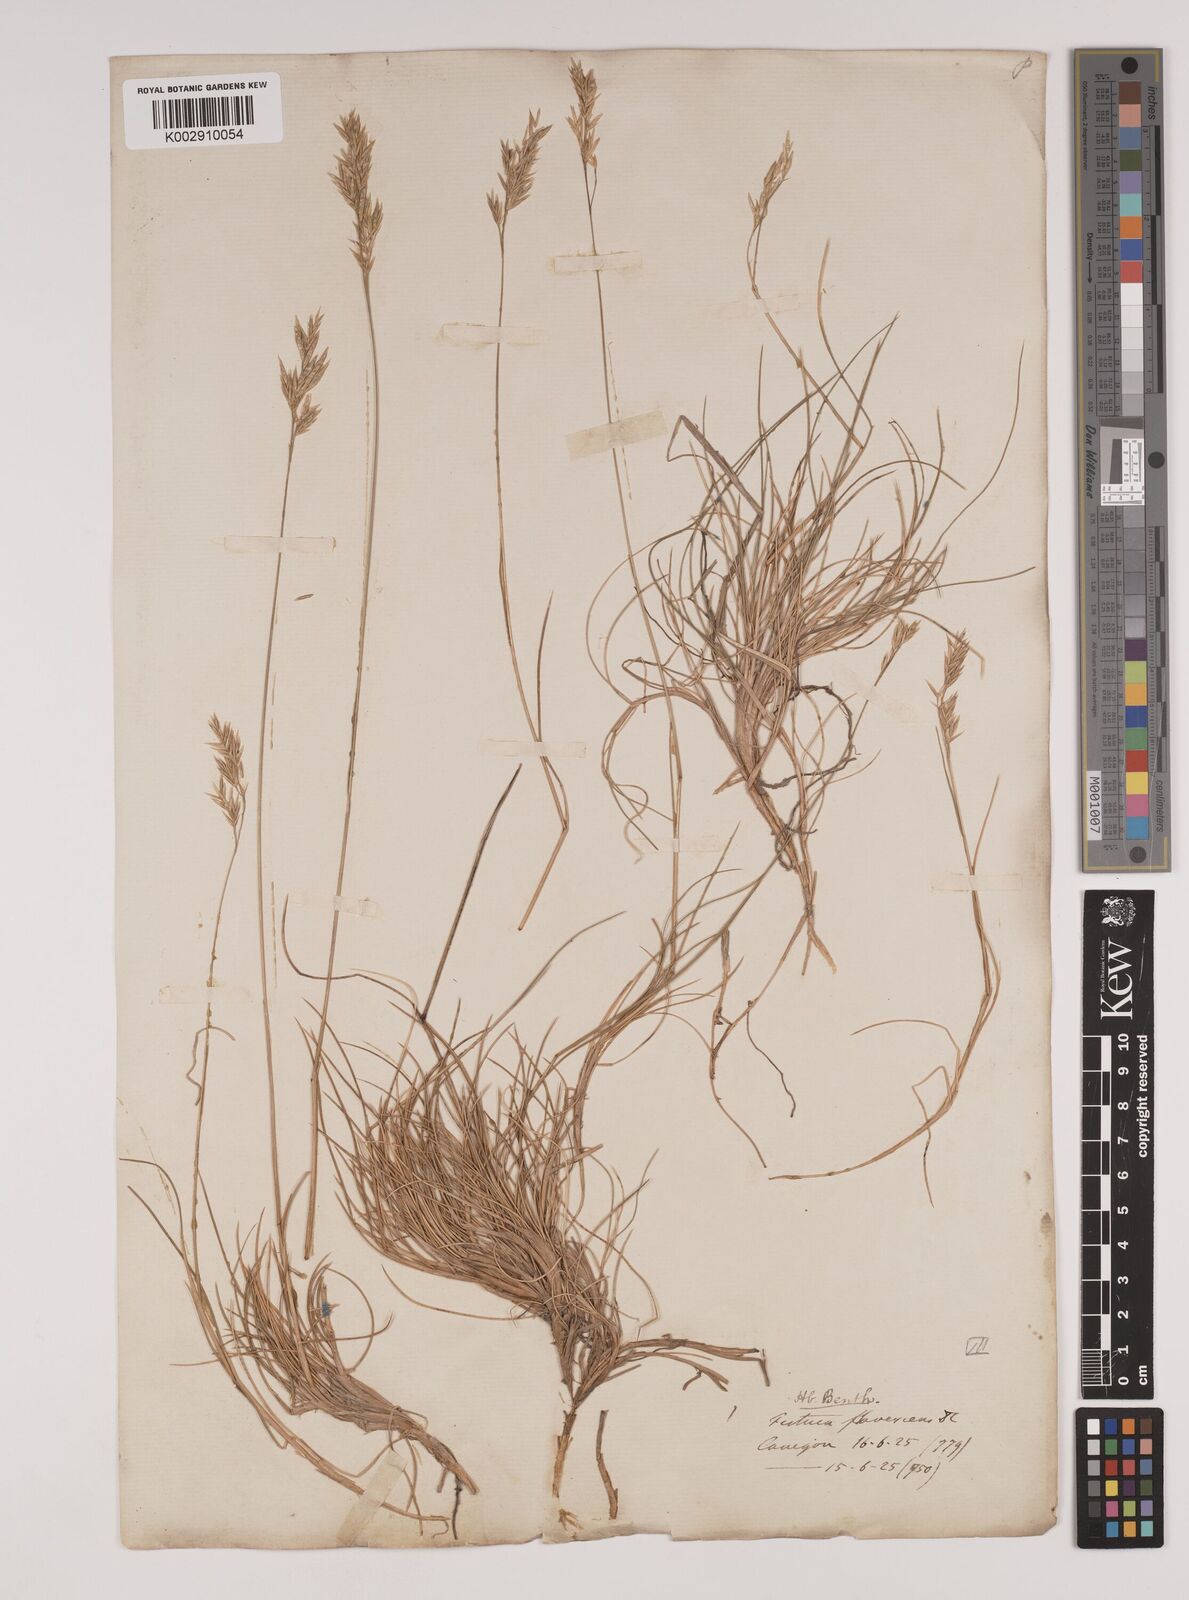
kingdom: Plantae
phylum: Tracheophyta
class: Liliopsida
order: Poales
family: Poaceae
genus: Festuca
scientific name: Festuca gautieri
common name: Spiky fescue
